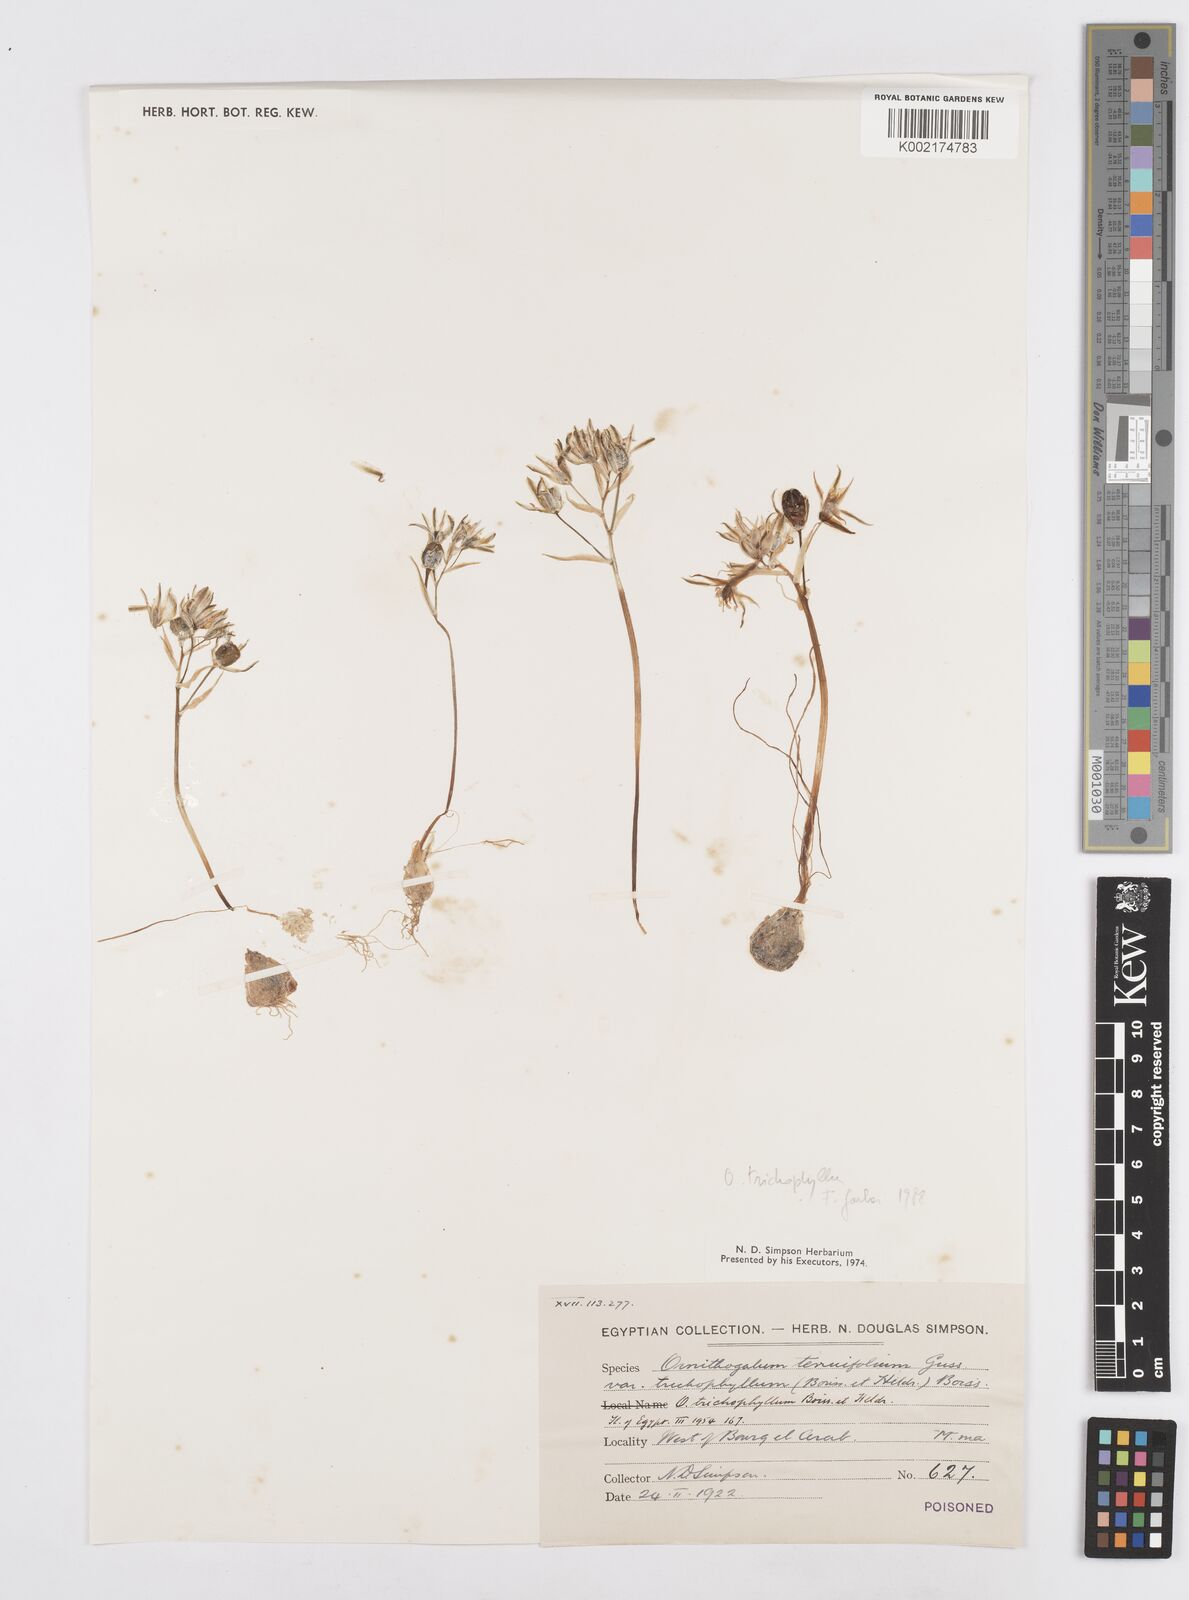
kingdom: Plantae
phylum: Tracheophyta
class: Liliopsida
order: Asparagales
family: Asparagaceae
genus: Ornithogalum
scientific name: Ornithogalum trichophyllum
